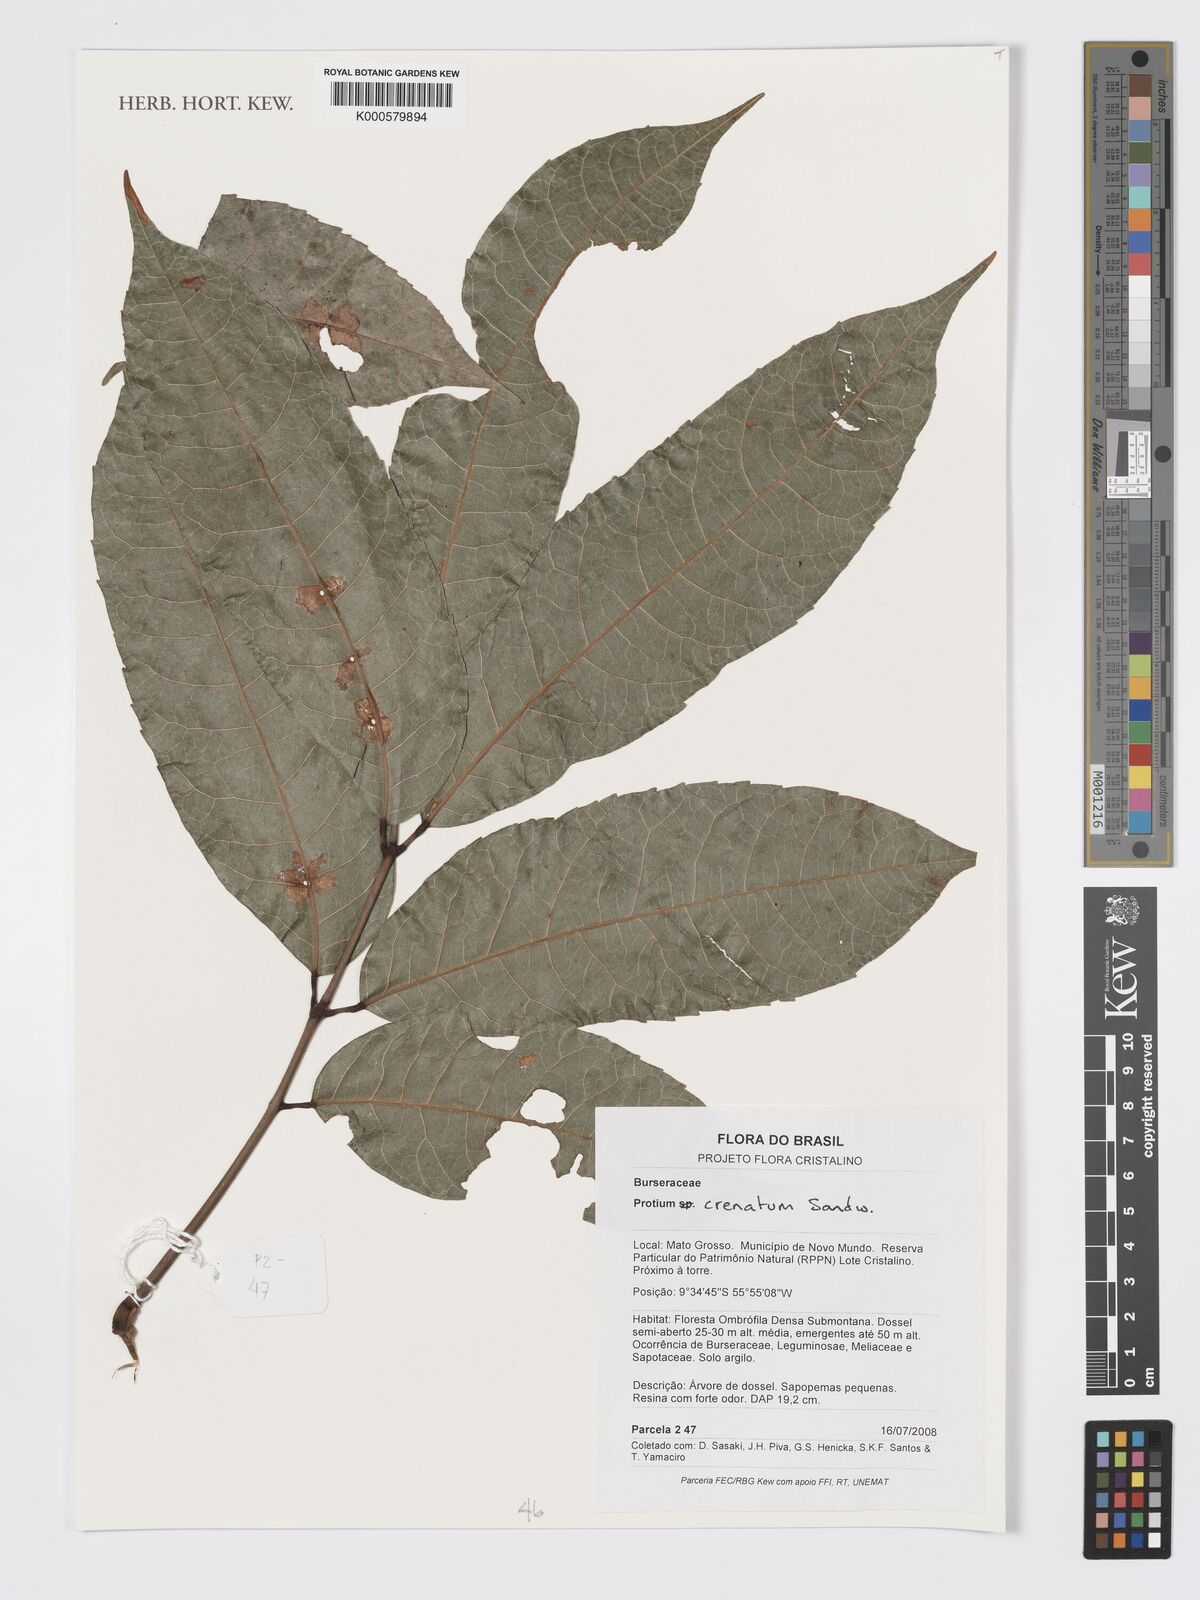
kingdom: Plantae
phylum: Tracheophyta
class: Magnoliopsida
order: Sapindales
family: Burseraceae
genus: Protium
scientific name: Protium crenatum
